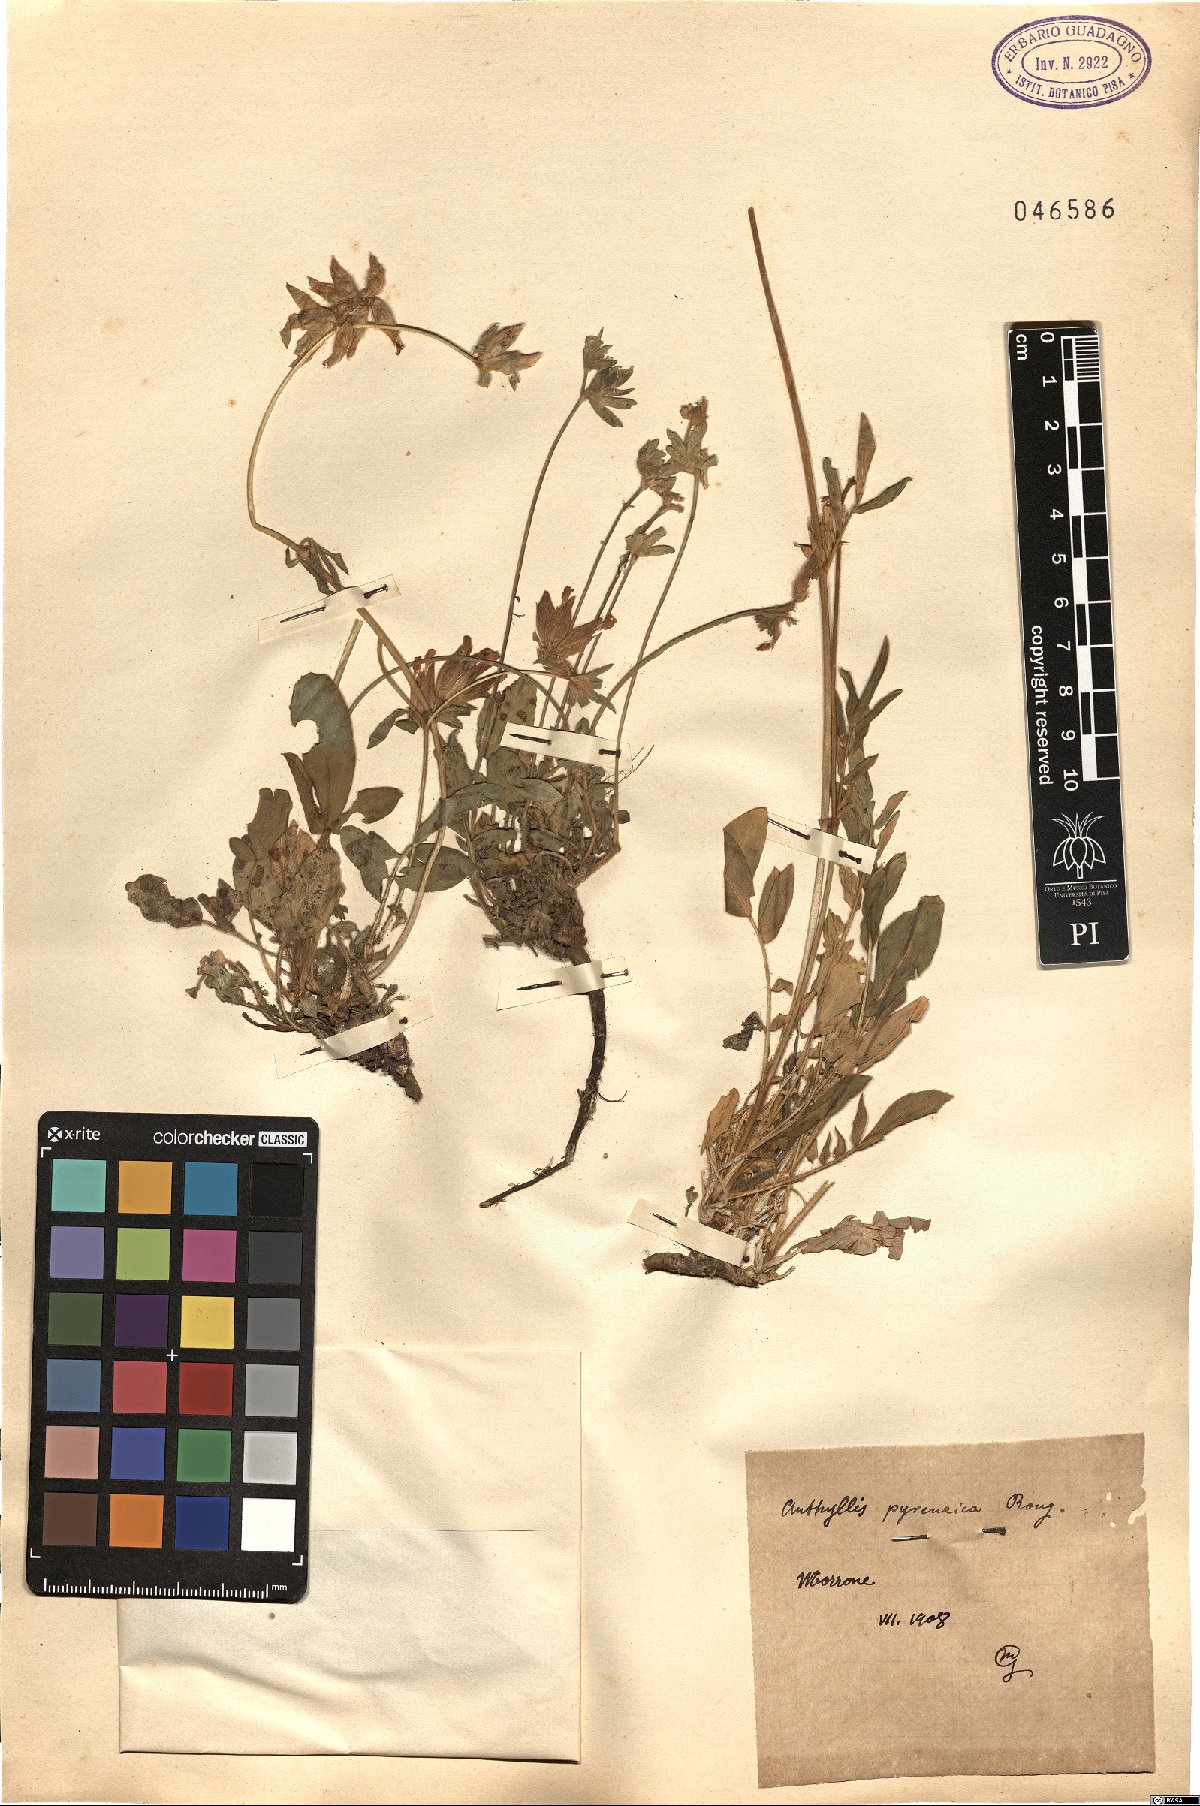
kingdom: Plantae
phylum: Tracheophyta
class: Magnoliopsida
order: Fabales
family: Fabaceae
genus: Anthyllis
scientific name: Anthyllis
